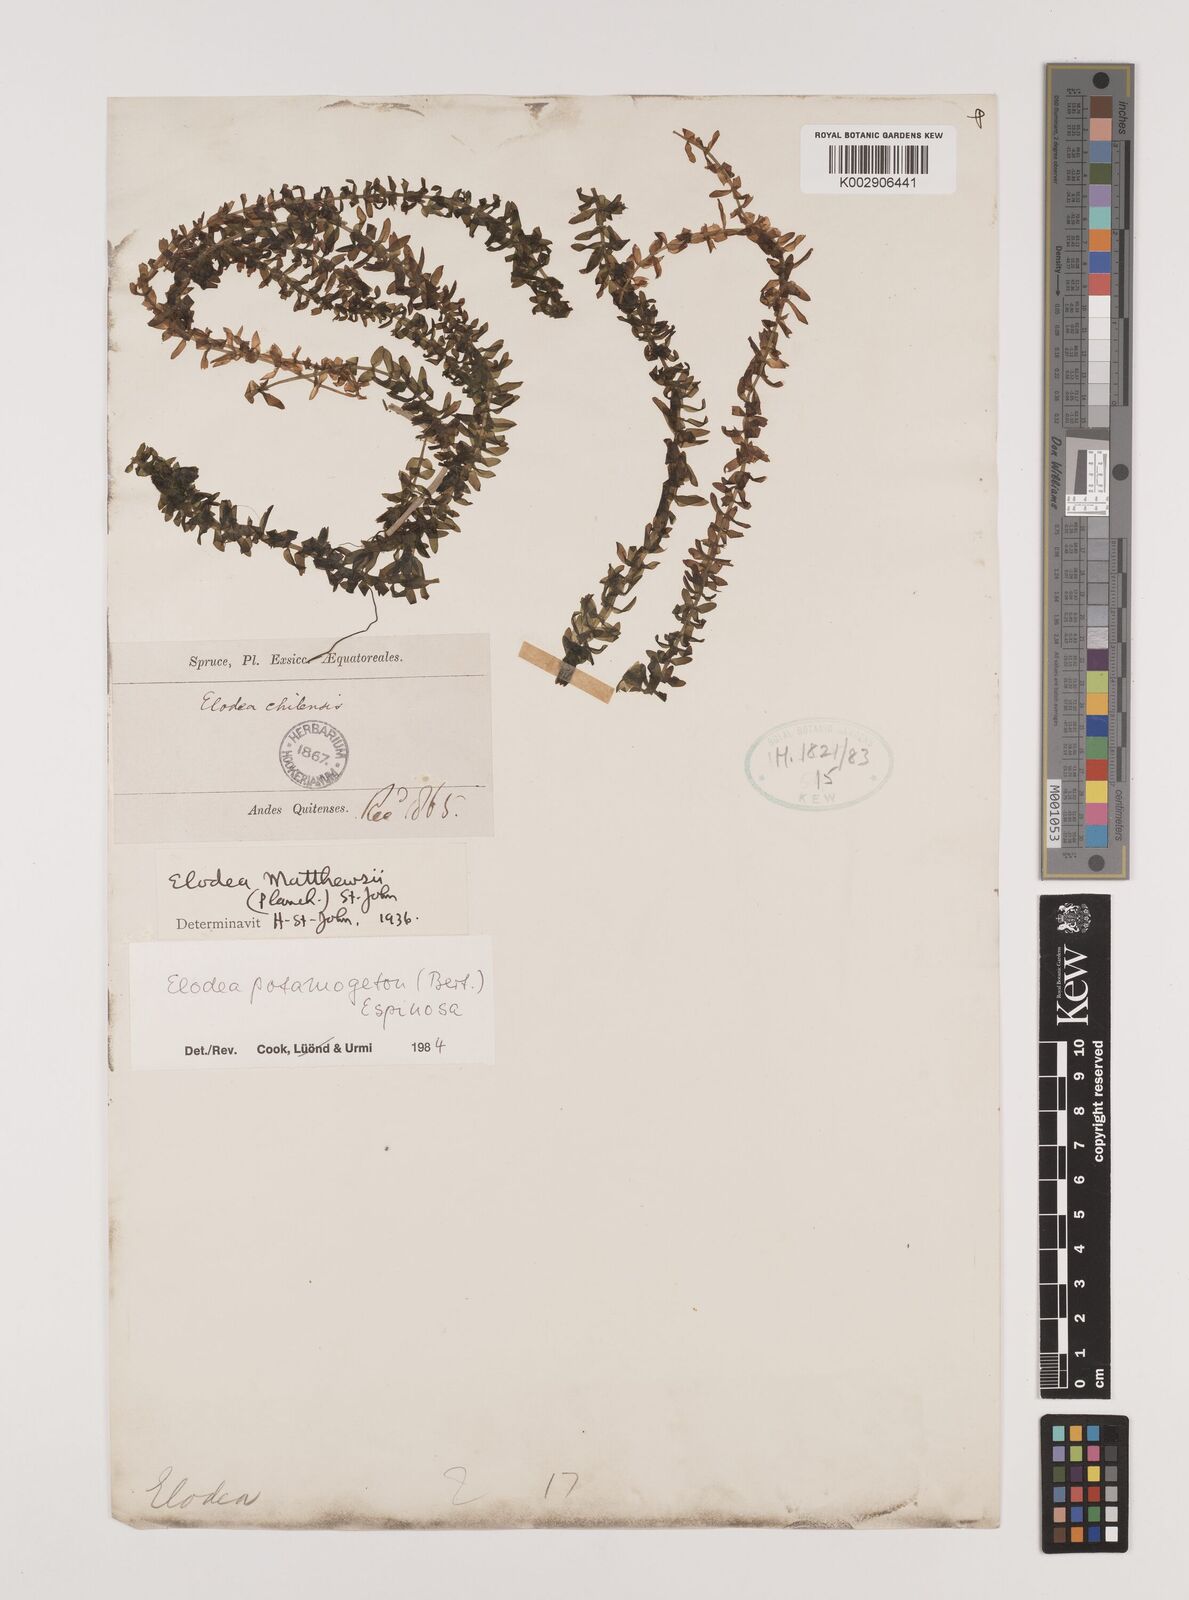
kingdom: Plantae
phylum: Tracheophyta
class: Liliopsida
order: Alismatales
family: Hydrocharitaceae
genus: Elodea
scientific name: Elodea potamogeton
